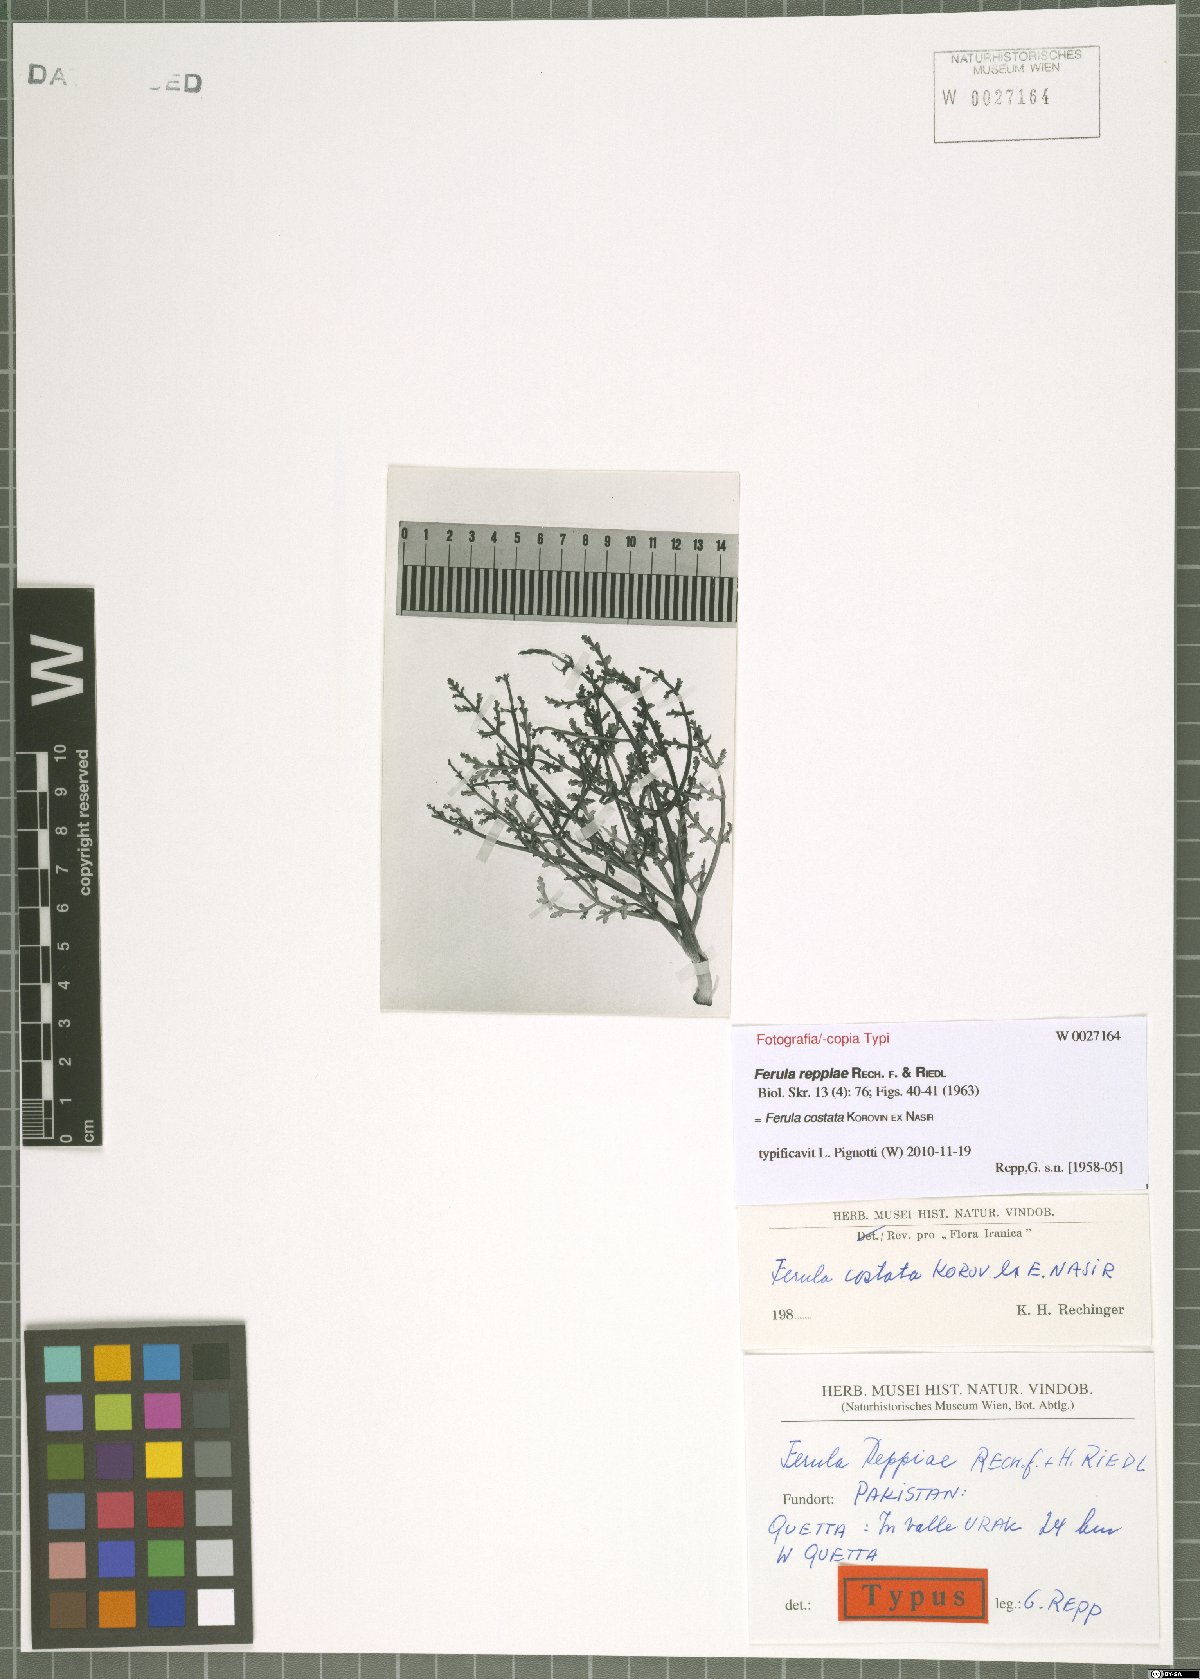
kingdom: Plantae
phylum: Tracheophyta
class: Magnoliopsida
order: Apiales
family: Apiaceae
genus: Ferula
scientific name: Ferula costata
